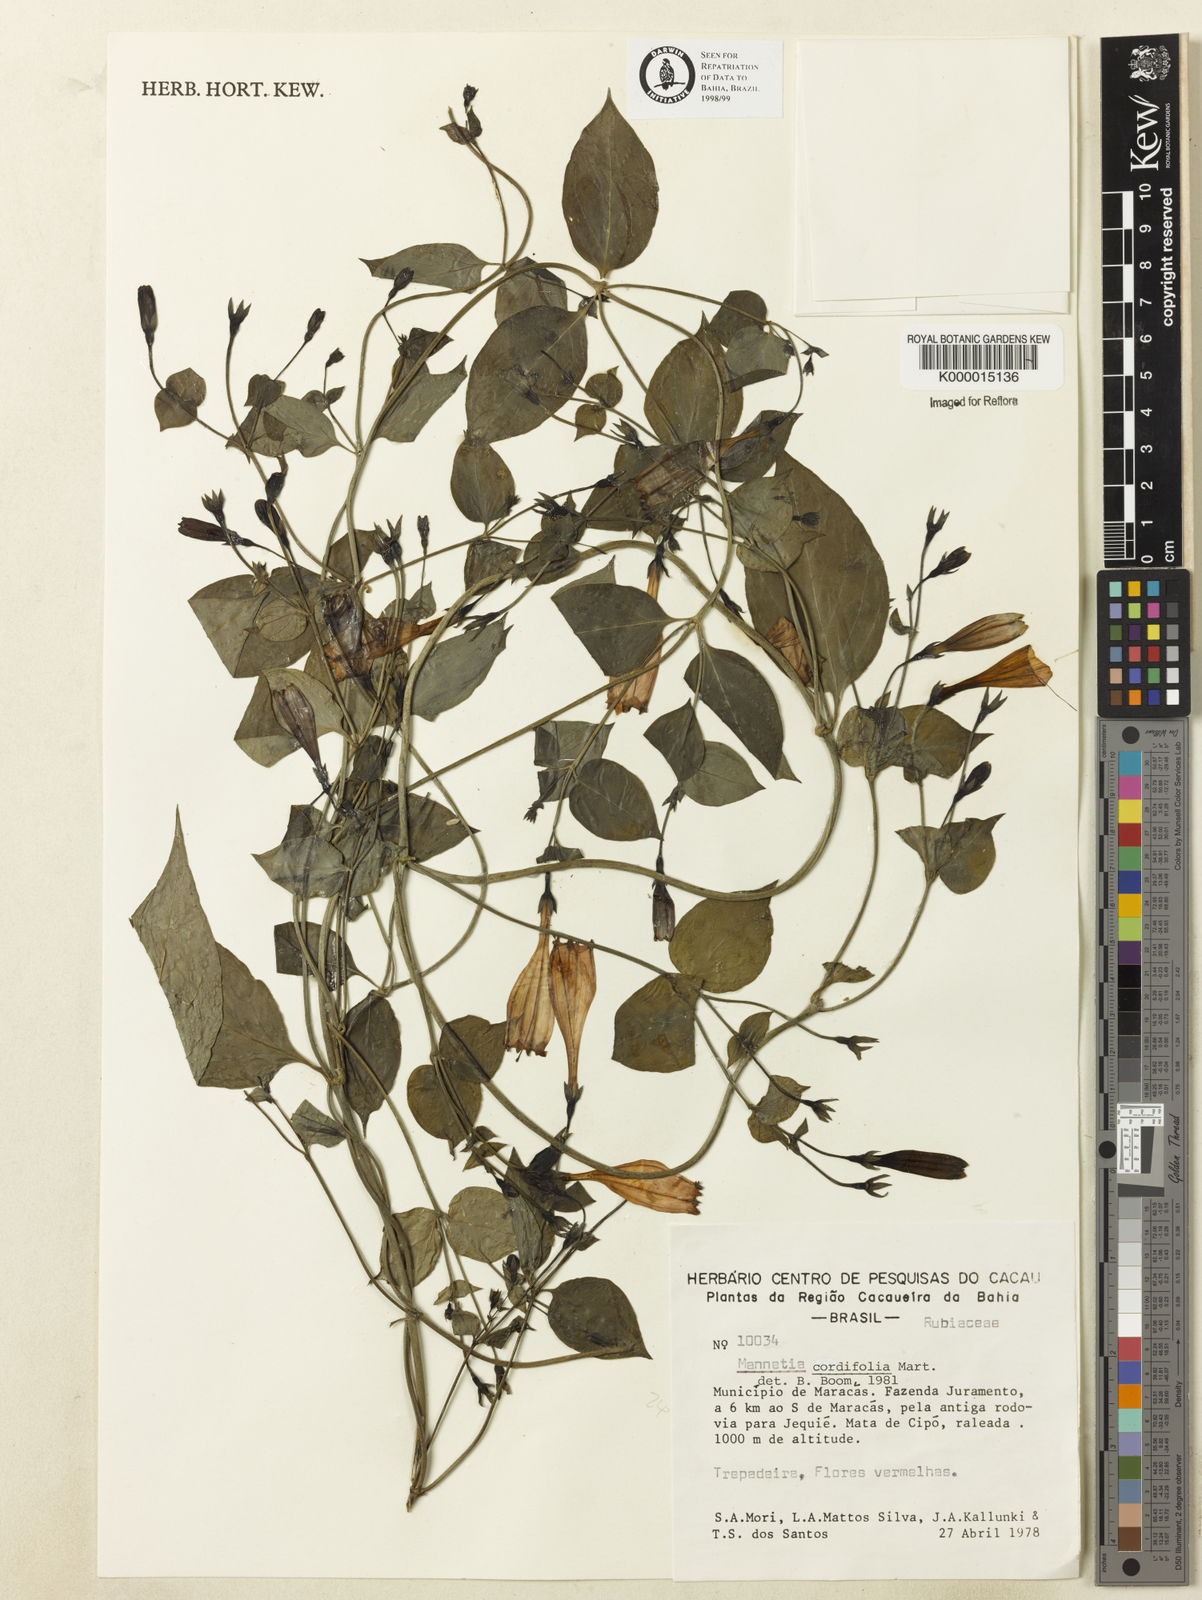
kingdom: Plantae
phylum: Tracheophyta
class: Magnoliopsida
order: Gentianales
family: Rubiaceae
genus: Manettia
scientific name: Manettia cordifolia
